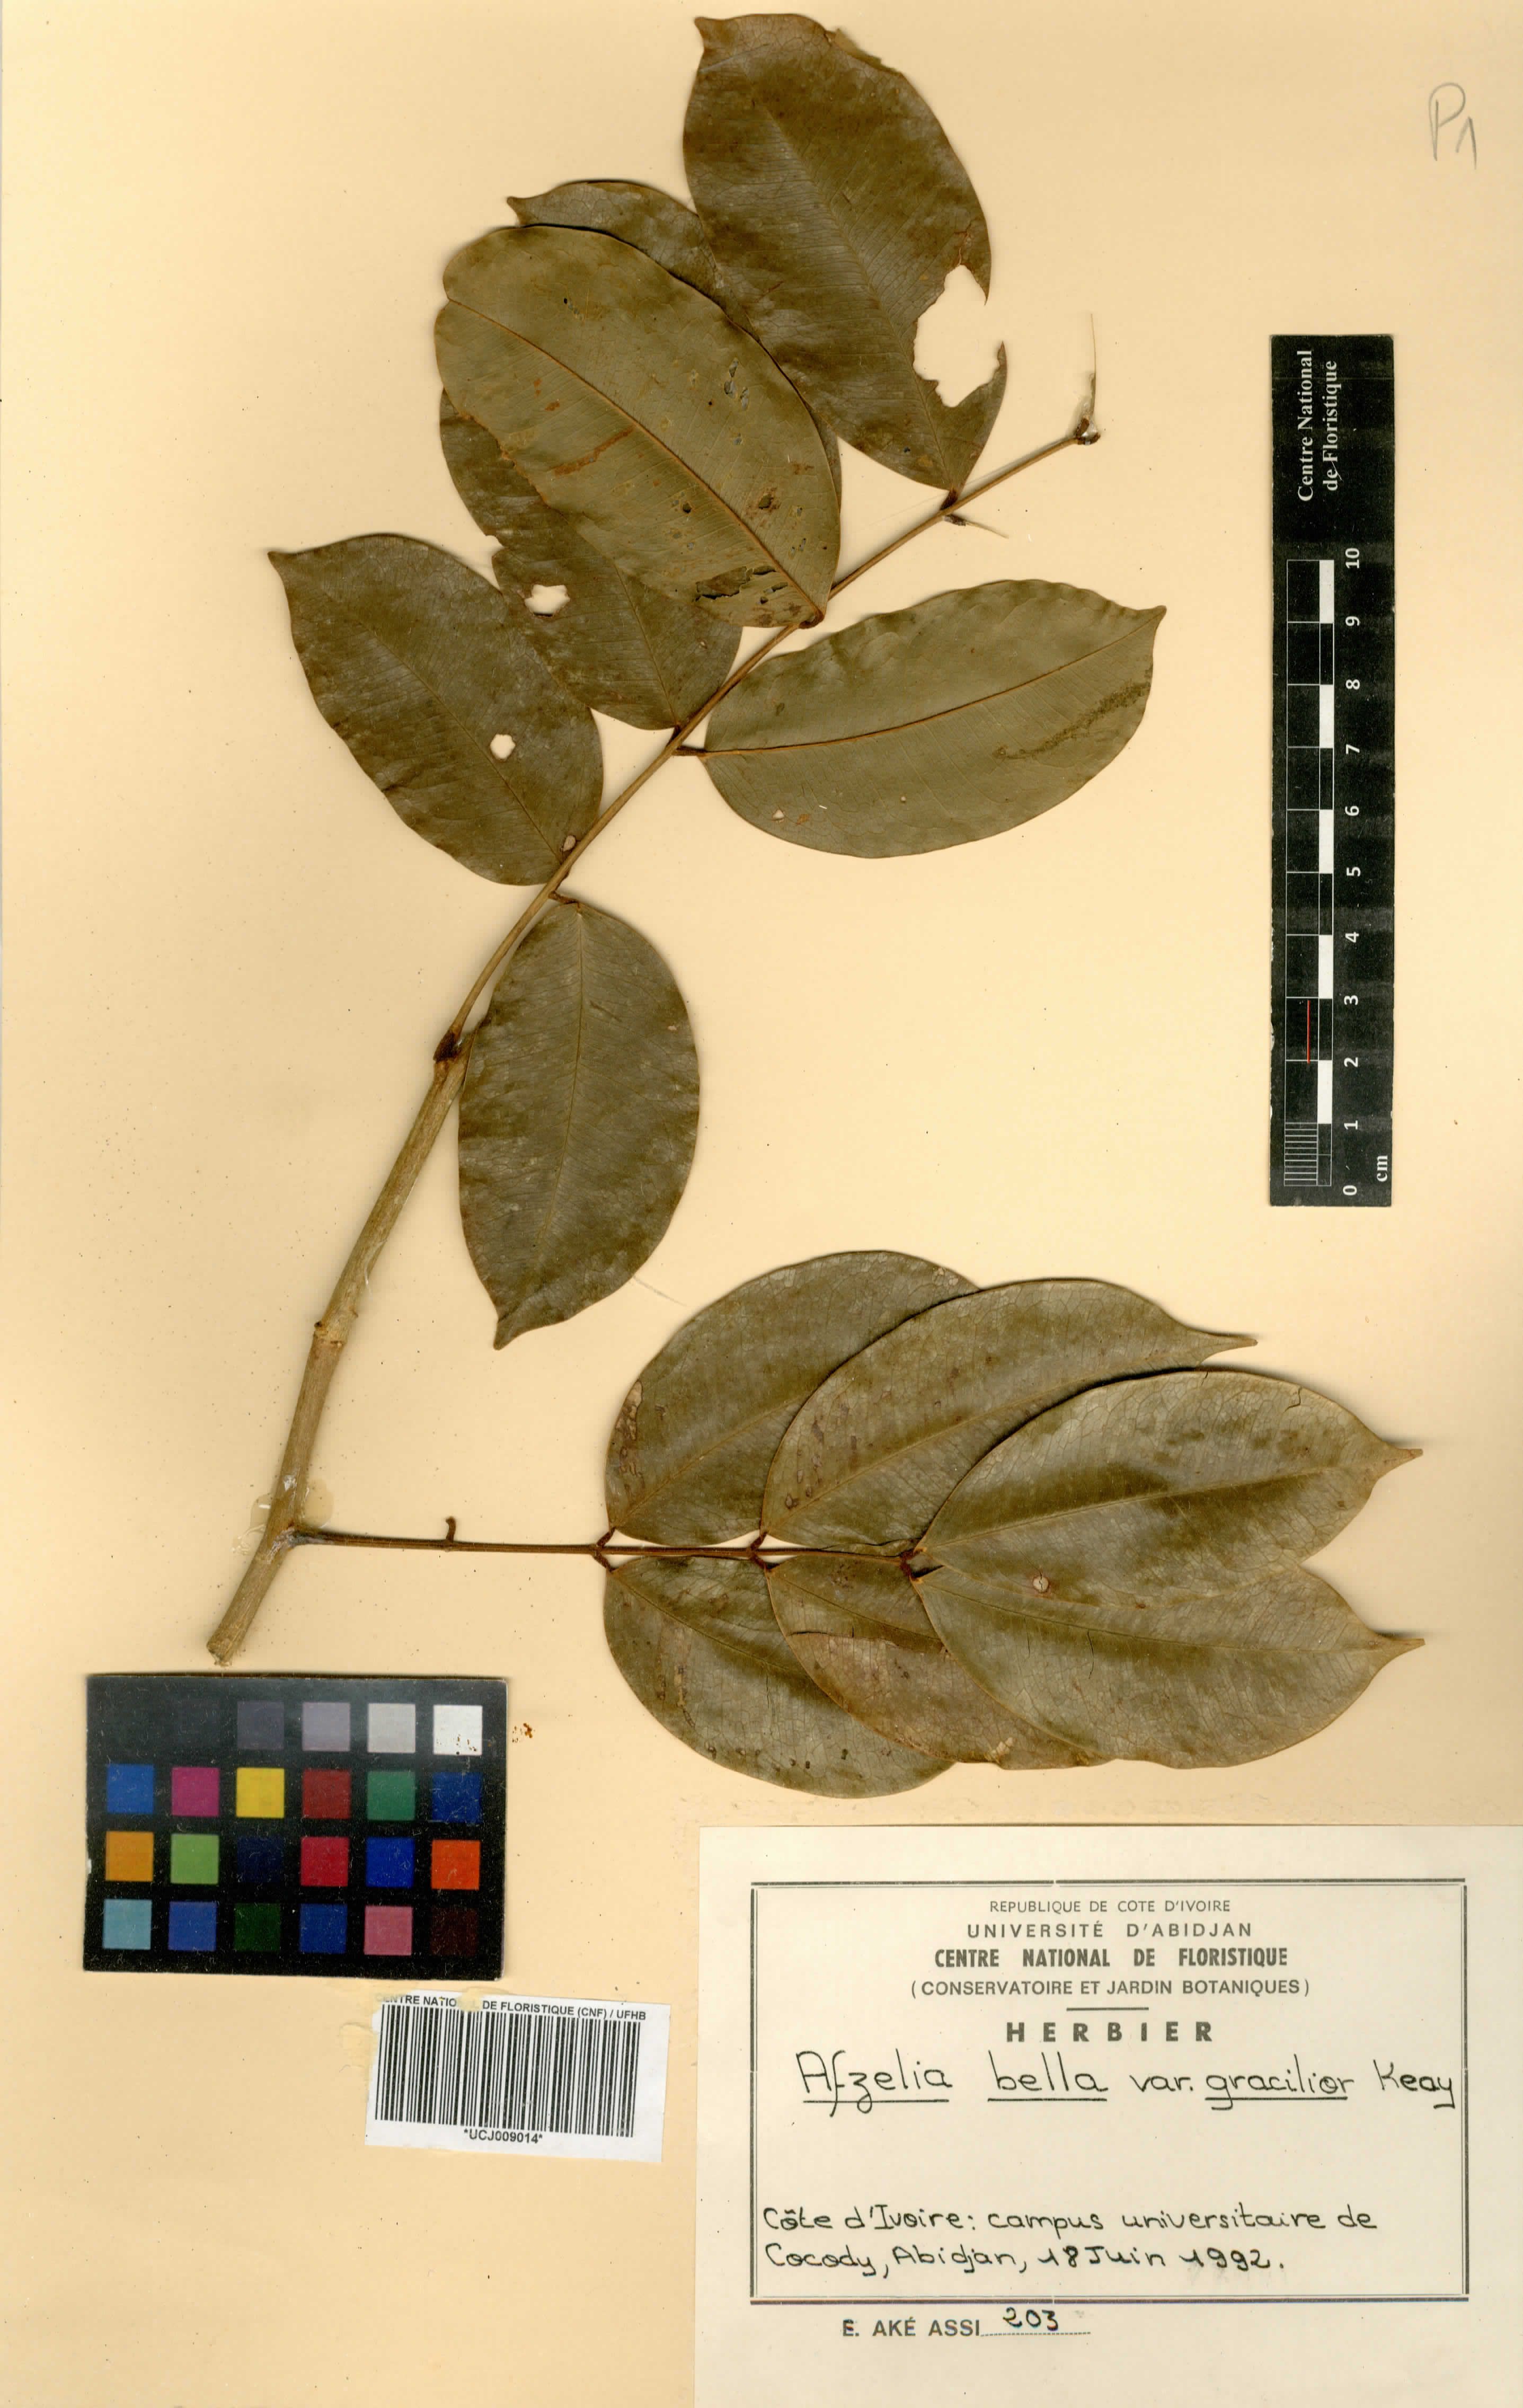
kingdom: Plantae
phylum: Tracheophyta
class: Magnoliopsida
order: Fabales
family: Fabaceae
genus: Afzelia
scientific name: Afzelia bella
